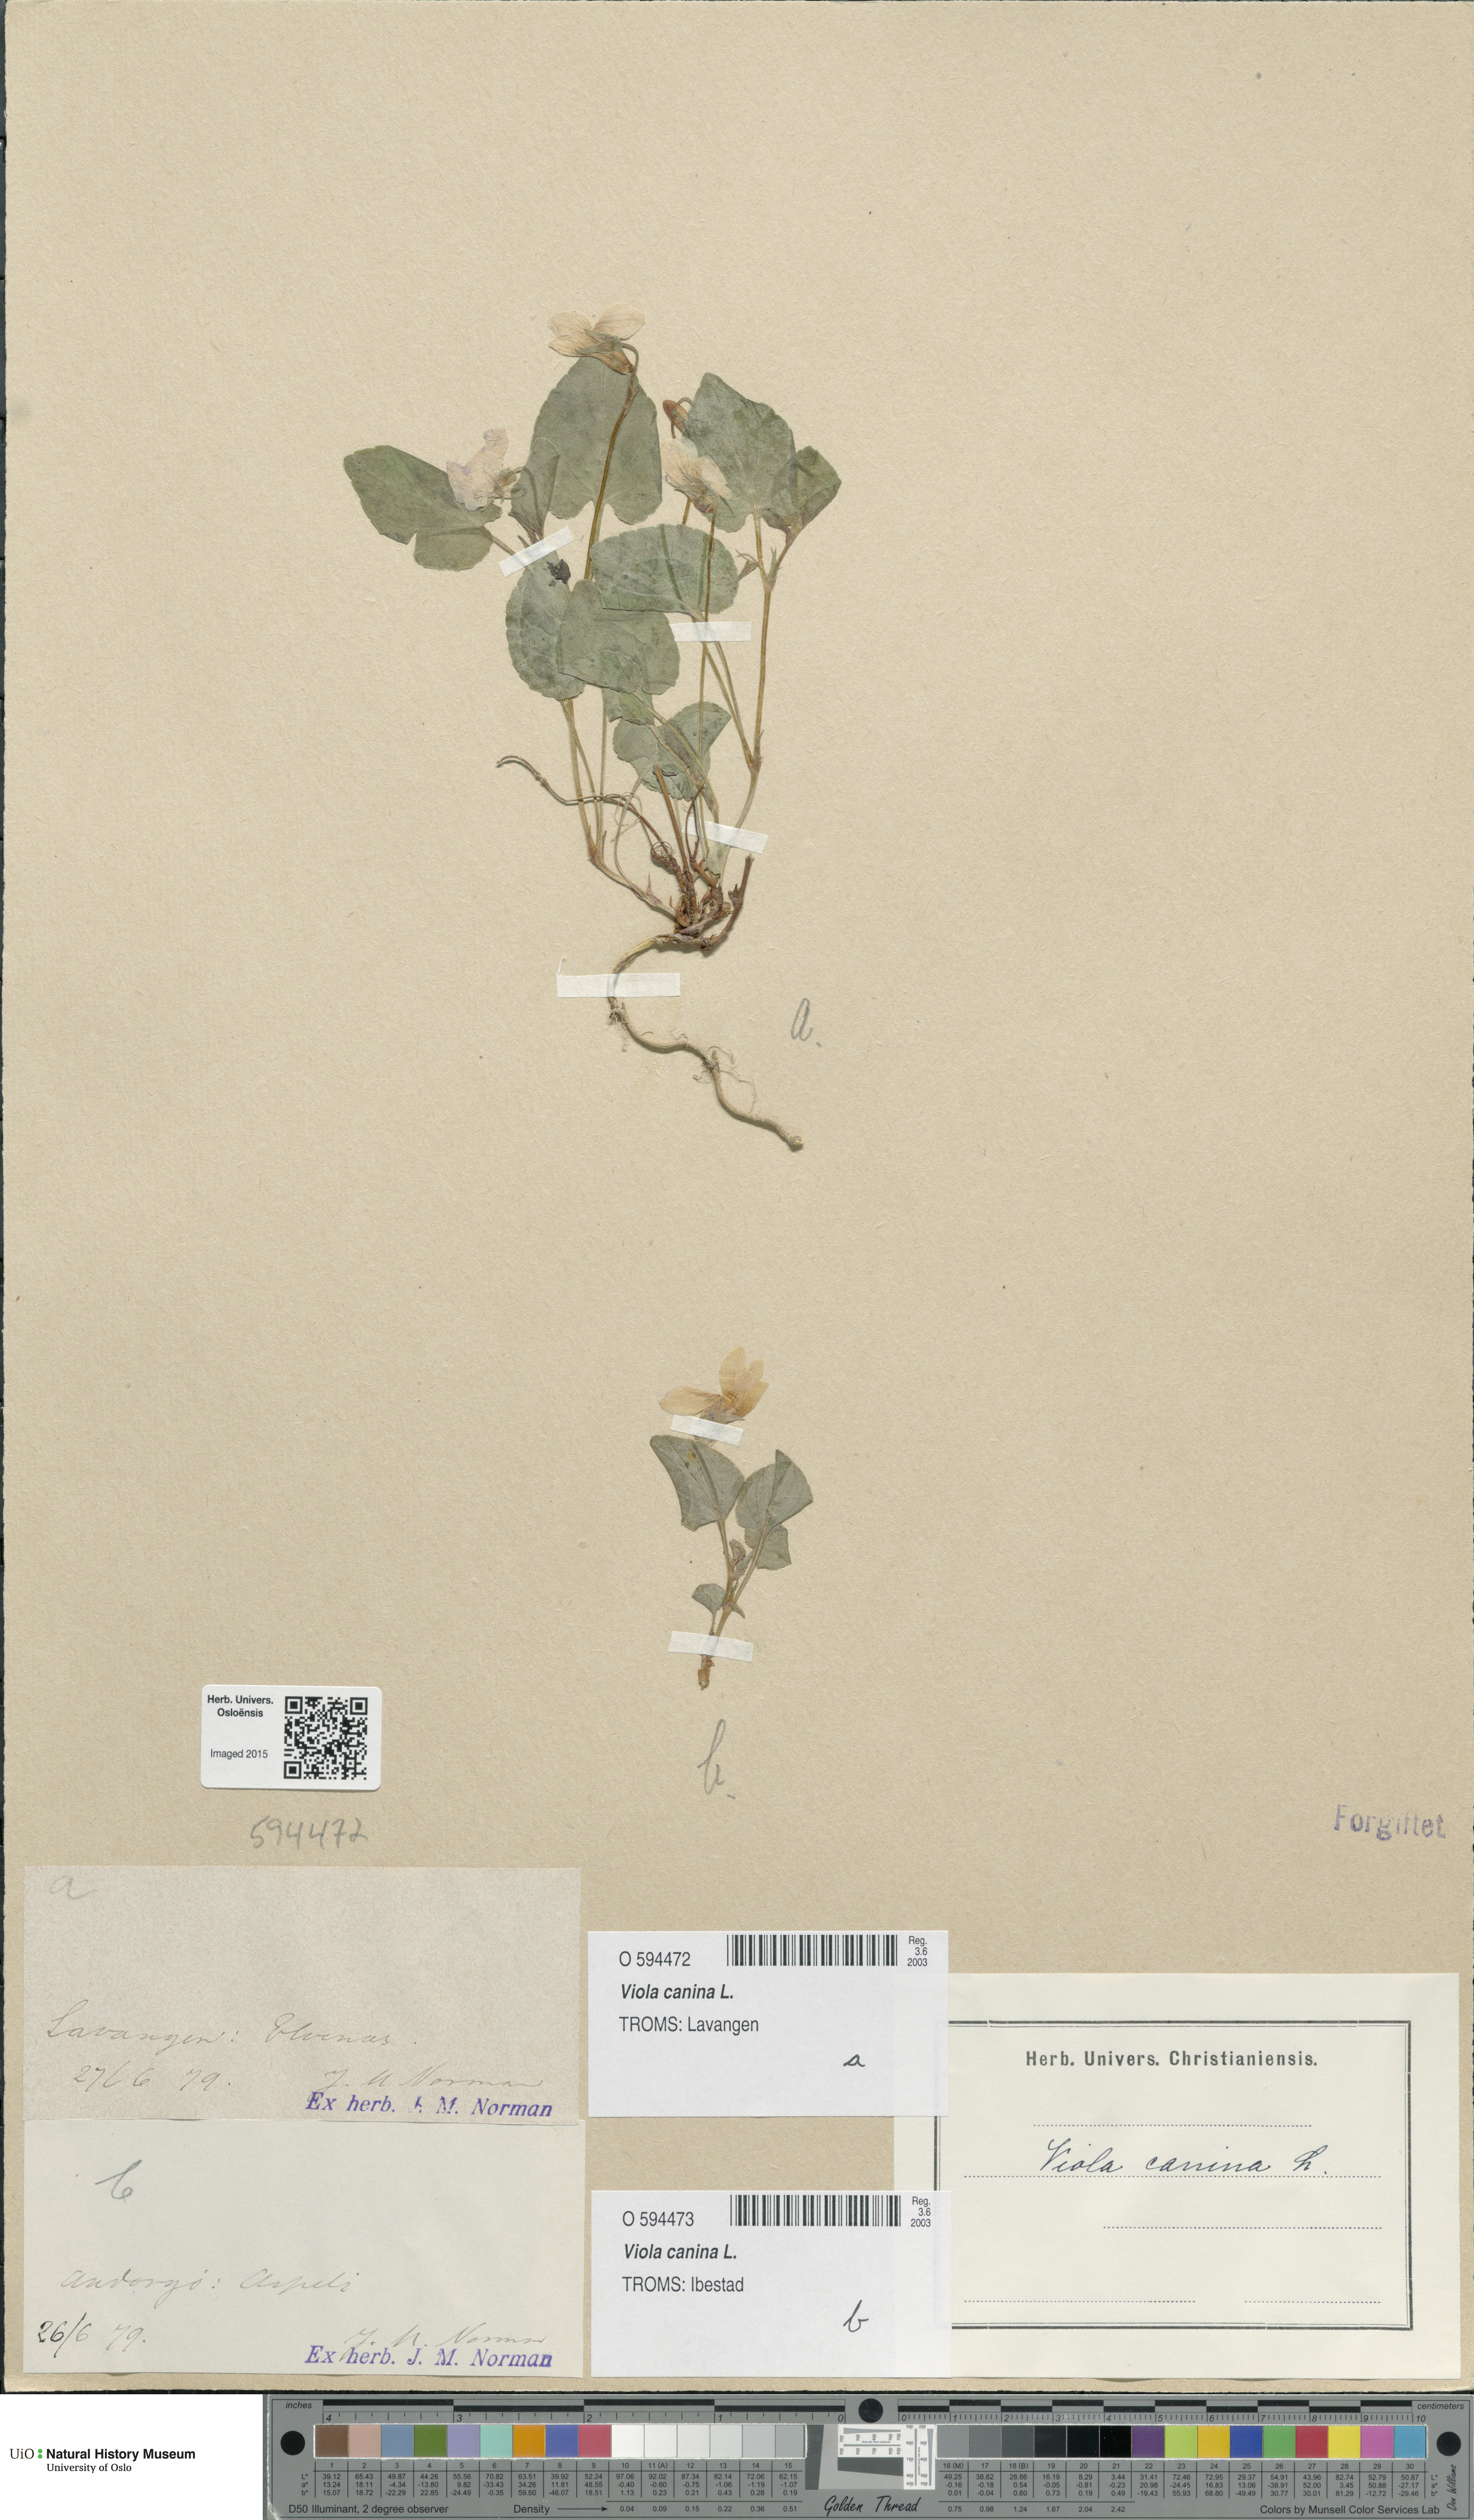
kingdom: Plantae
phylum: Tracheophyta
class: Magnoliopsida
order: Malpighiales
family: Violaceae
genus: Viola
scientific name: Viola canina
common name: Heath dog-violet
